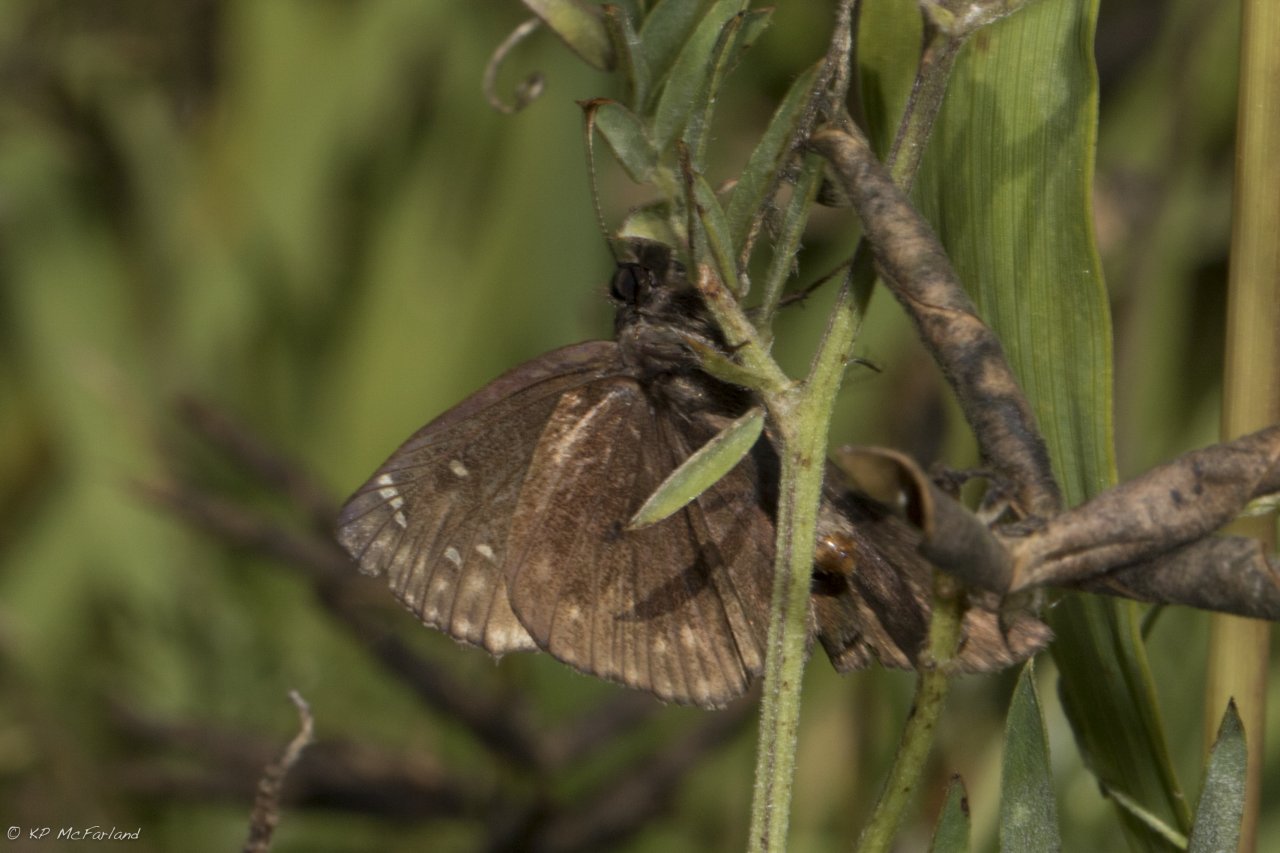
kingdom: Animalia
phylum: Arthropoda
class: Insecta
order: Lepidoptera
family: Hesperiidae
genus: Gesta
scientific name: Gesta
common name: Wild Indigo Duskywing
